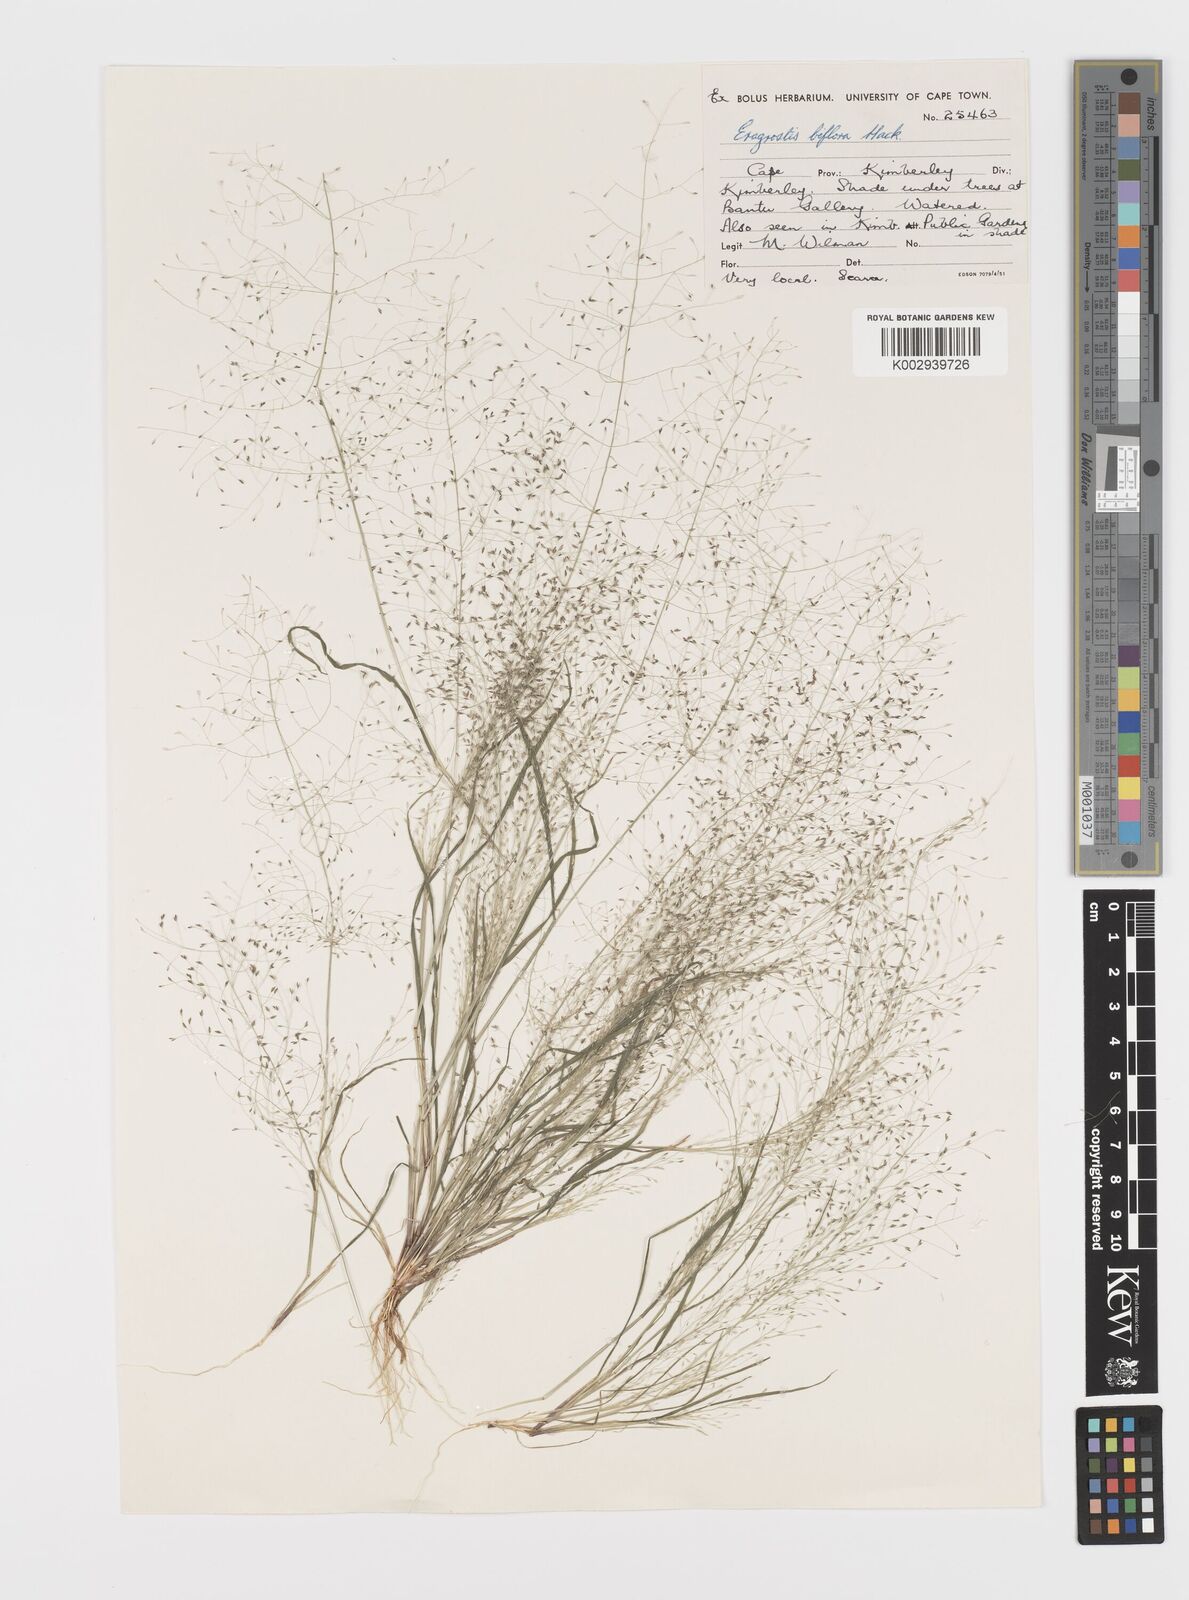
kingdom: Plantae
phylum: Tracheophyta
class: Liliopsida
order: Poales
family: Poaceae
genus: Eragrostis
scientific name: Eragrostis biflora
